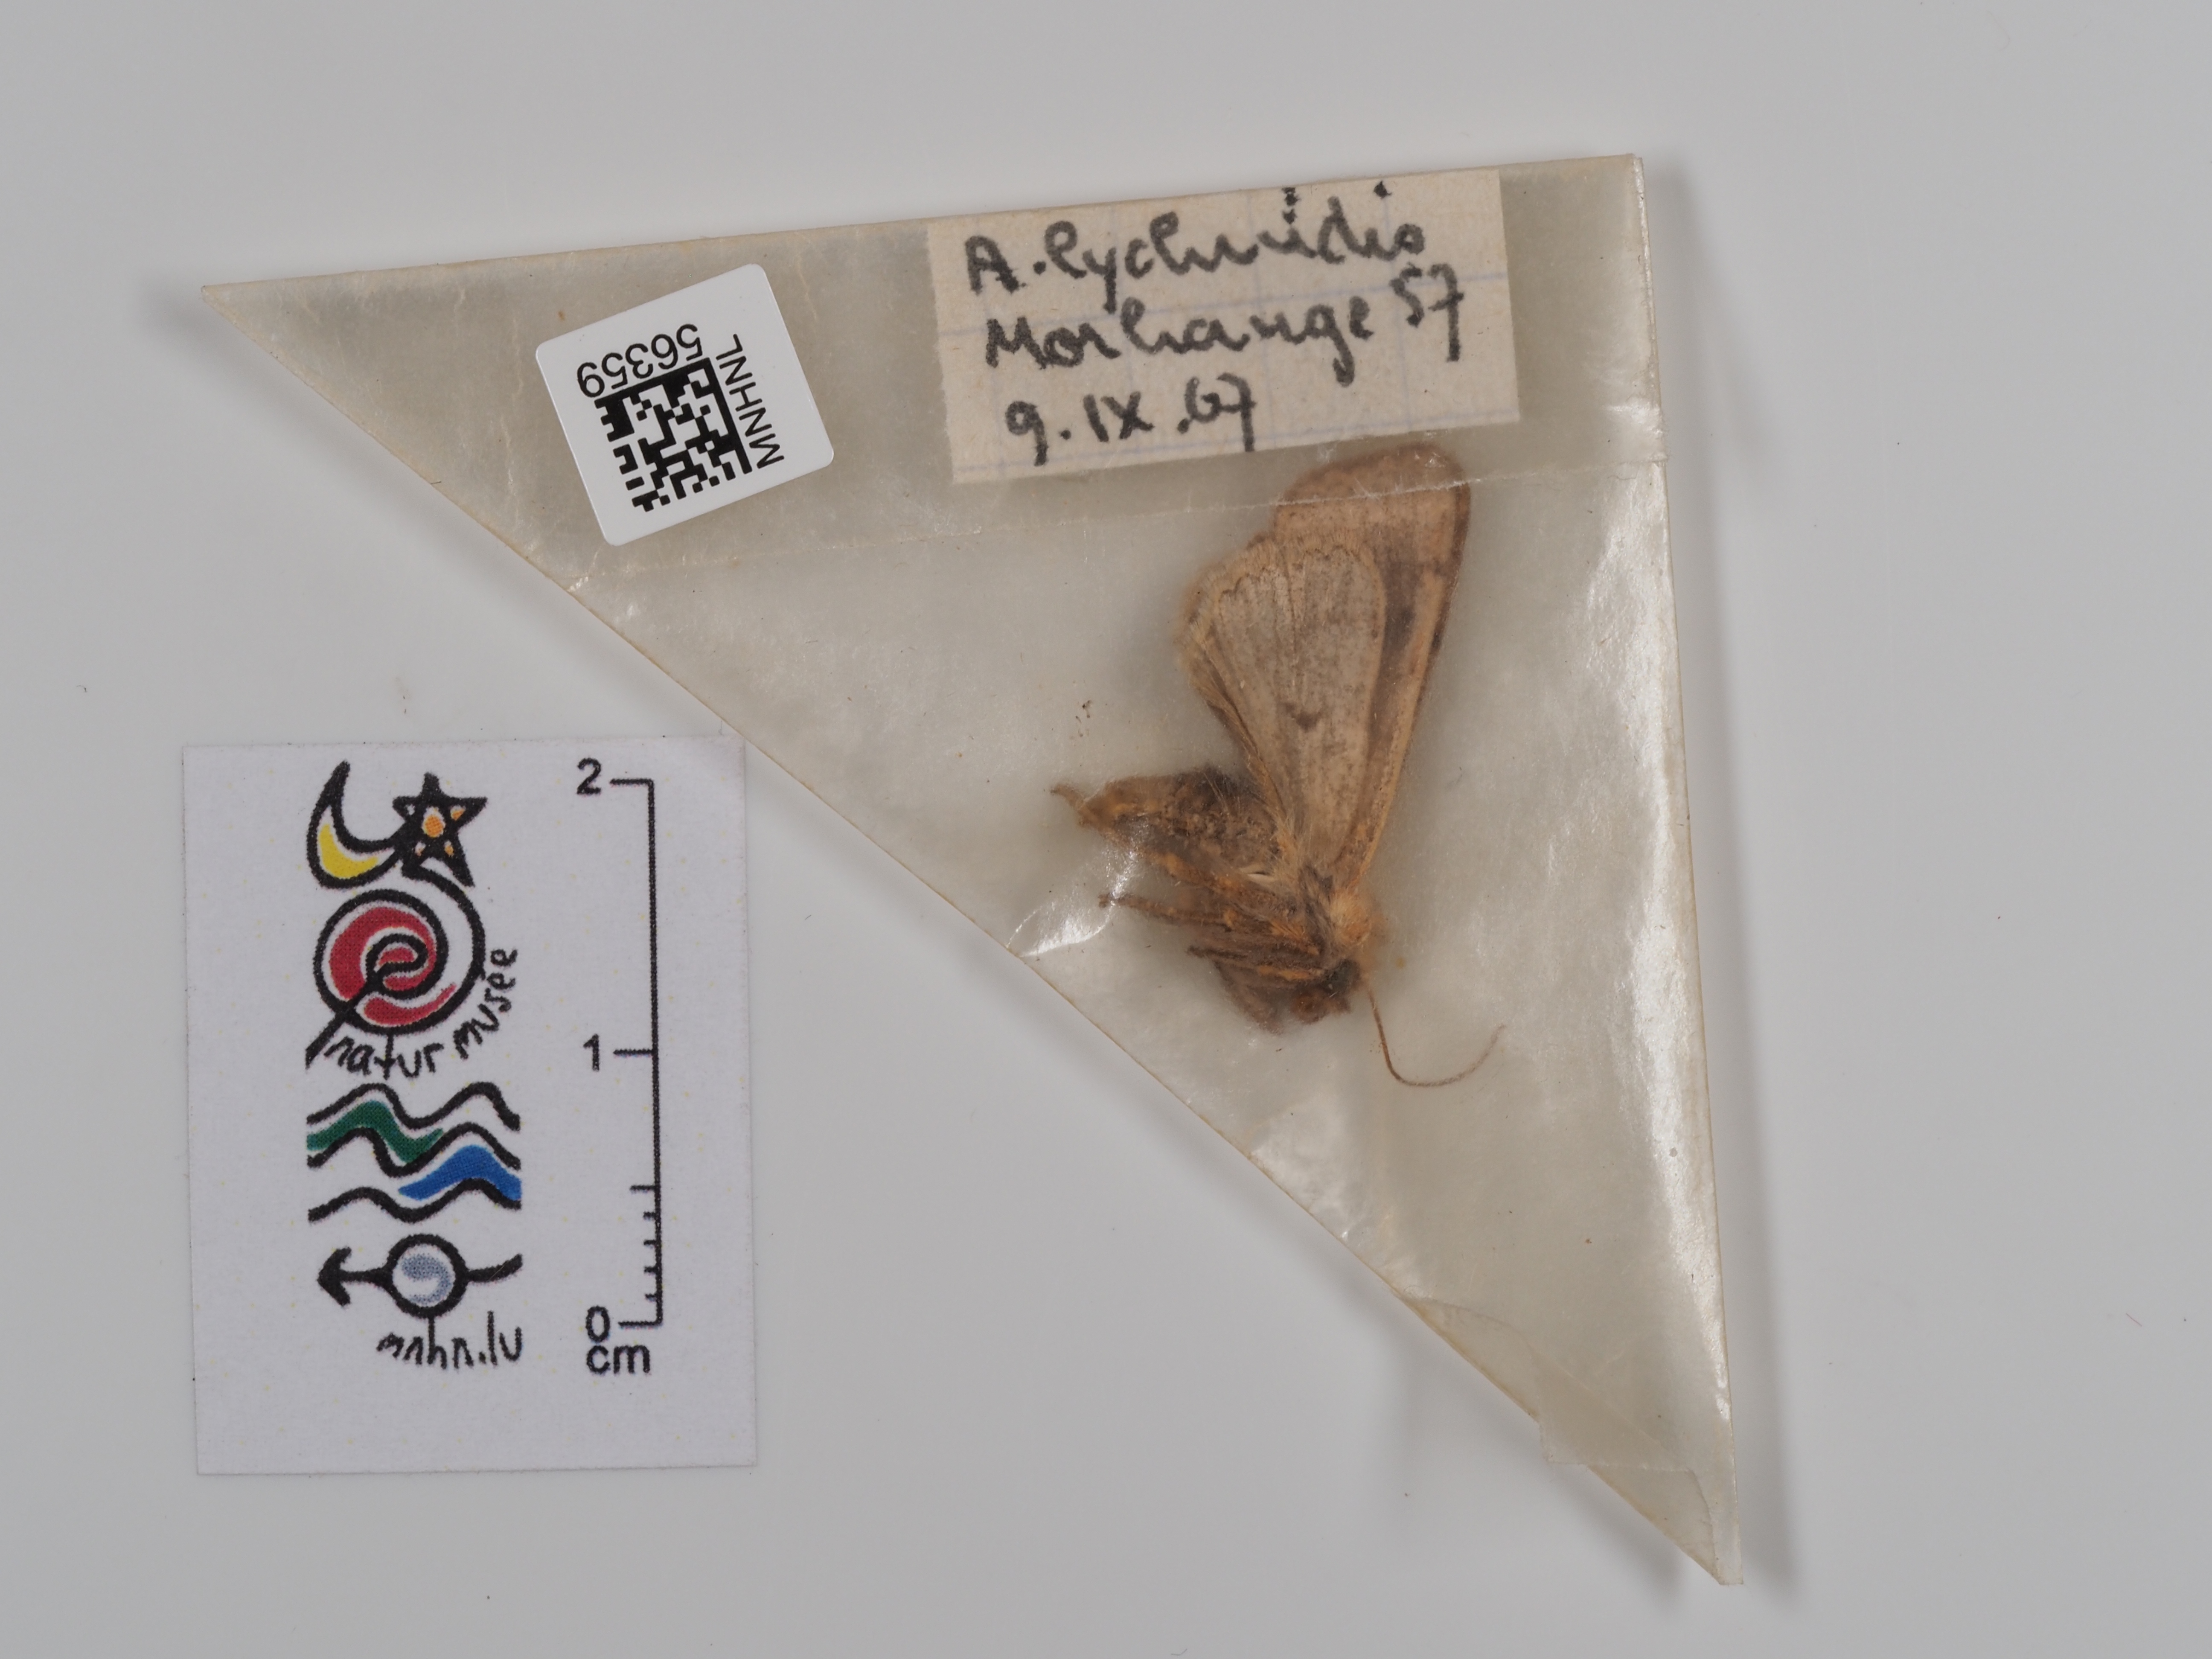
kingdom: Animalia
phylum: Arthropoda
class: Insecta
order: Lepidoptera
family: Noctuidae
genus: Agrochola
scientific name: Agrochola lychnidis
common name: Beaded chestnut
